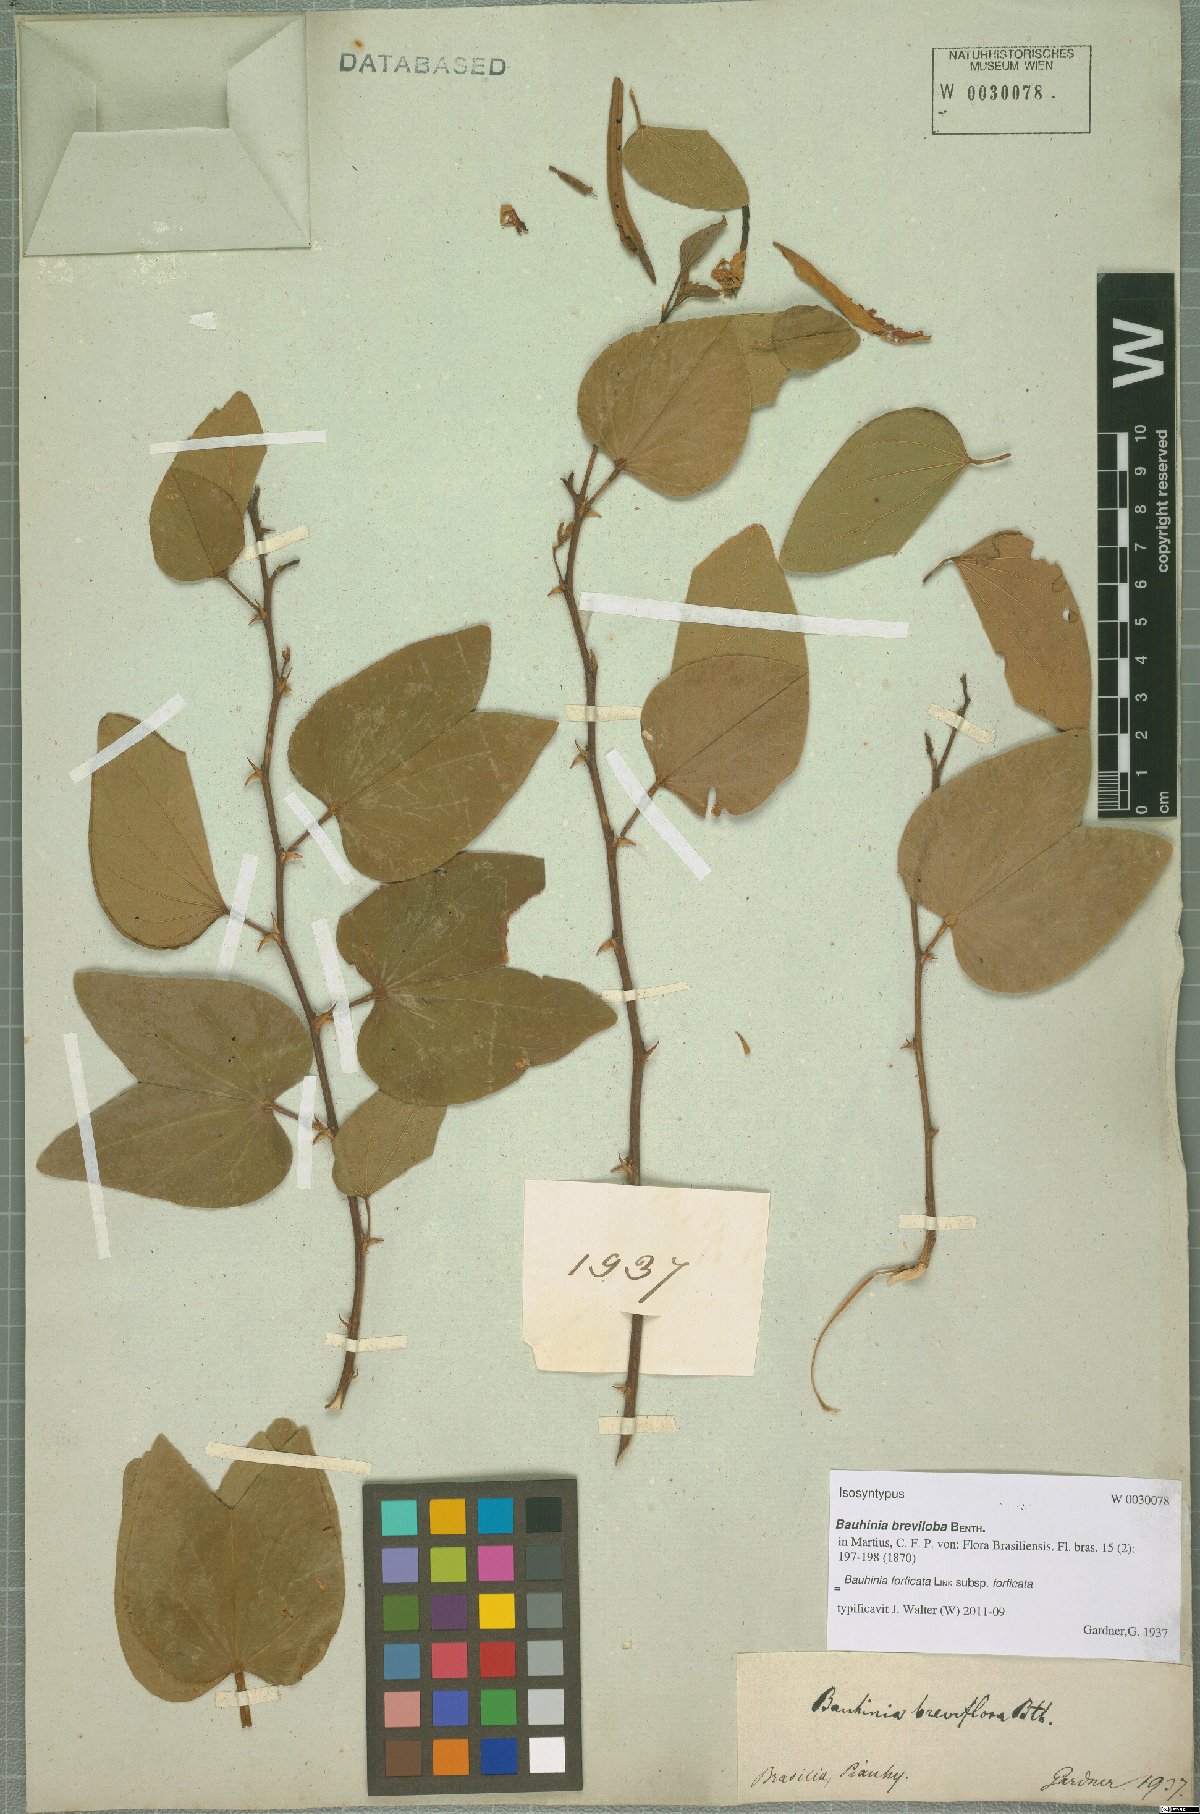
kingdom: Plantae
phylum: Tracheophyta
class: Magnoliopsida
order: Fabales
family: Fabaceae
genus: Bauhinia
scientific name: Bauhinia forficata
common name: Orchid tree
